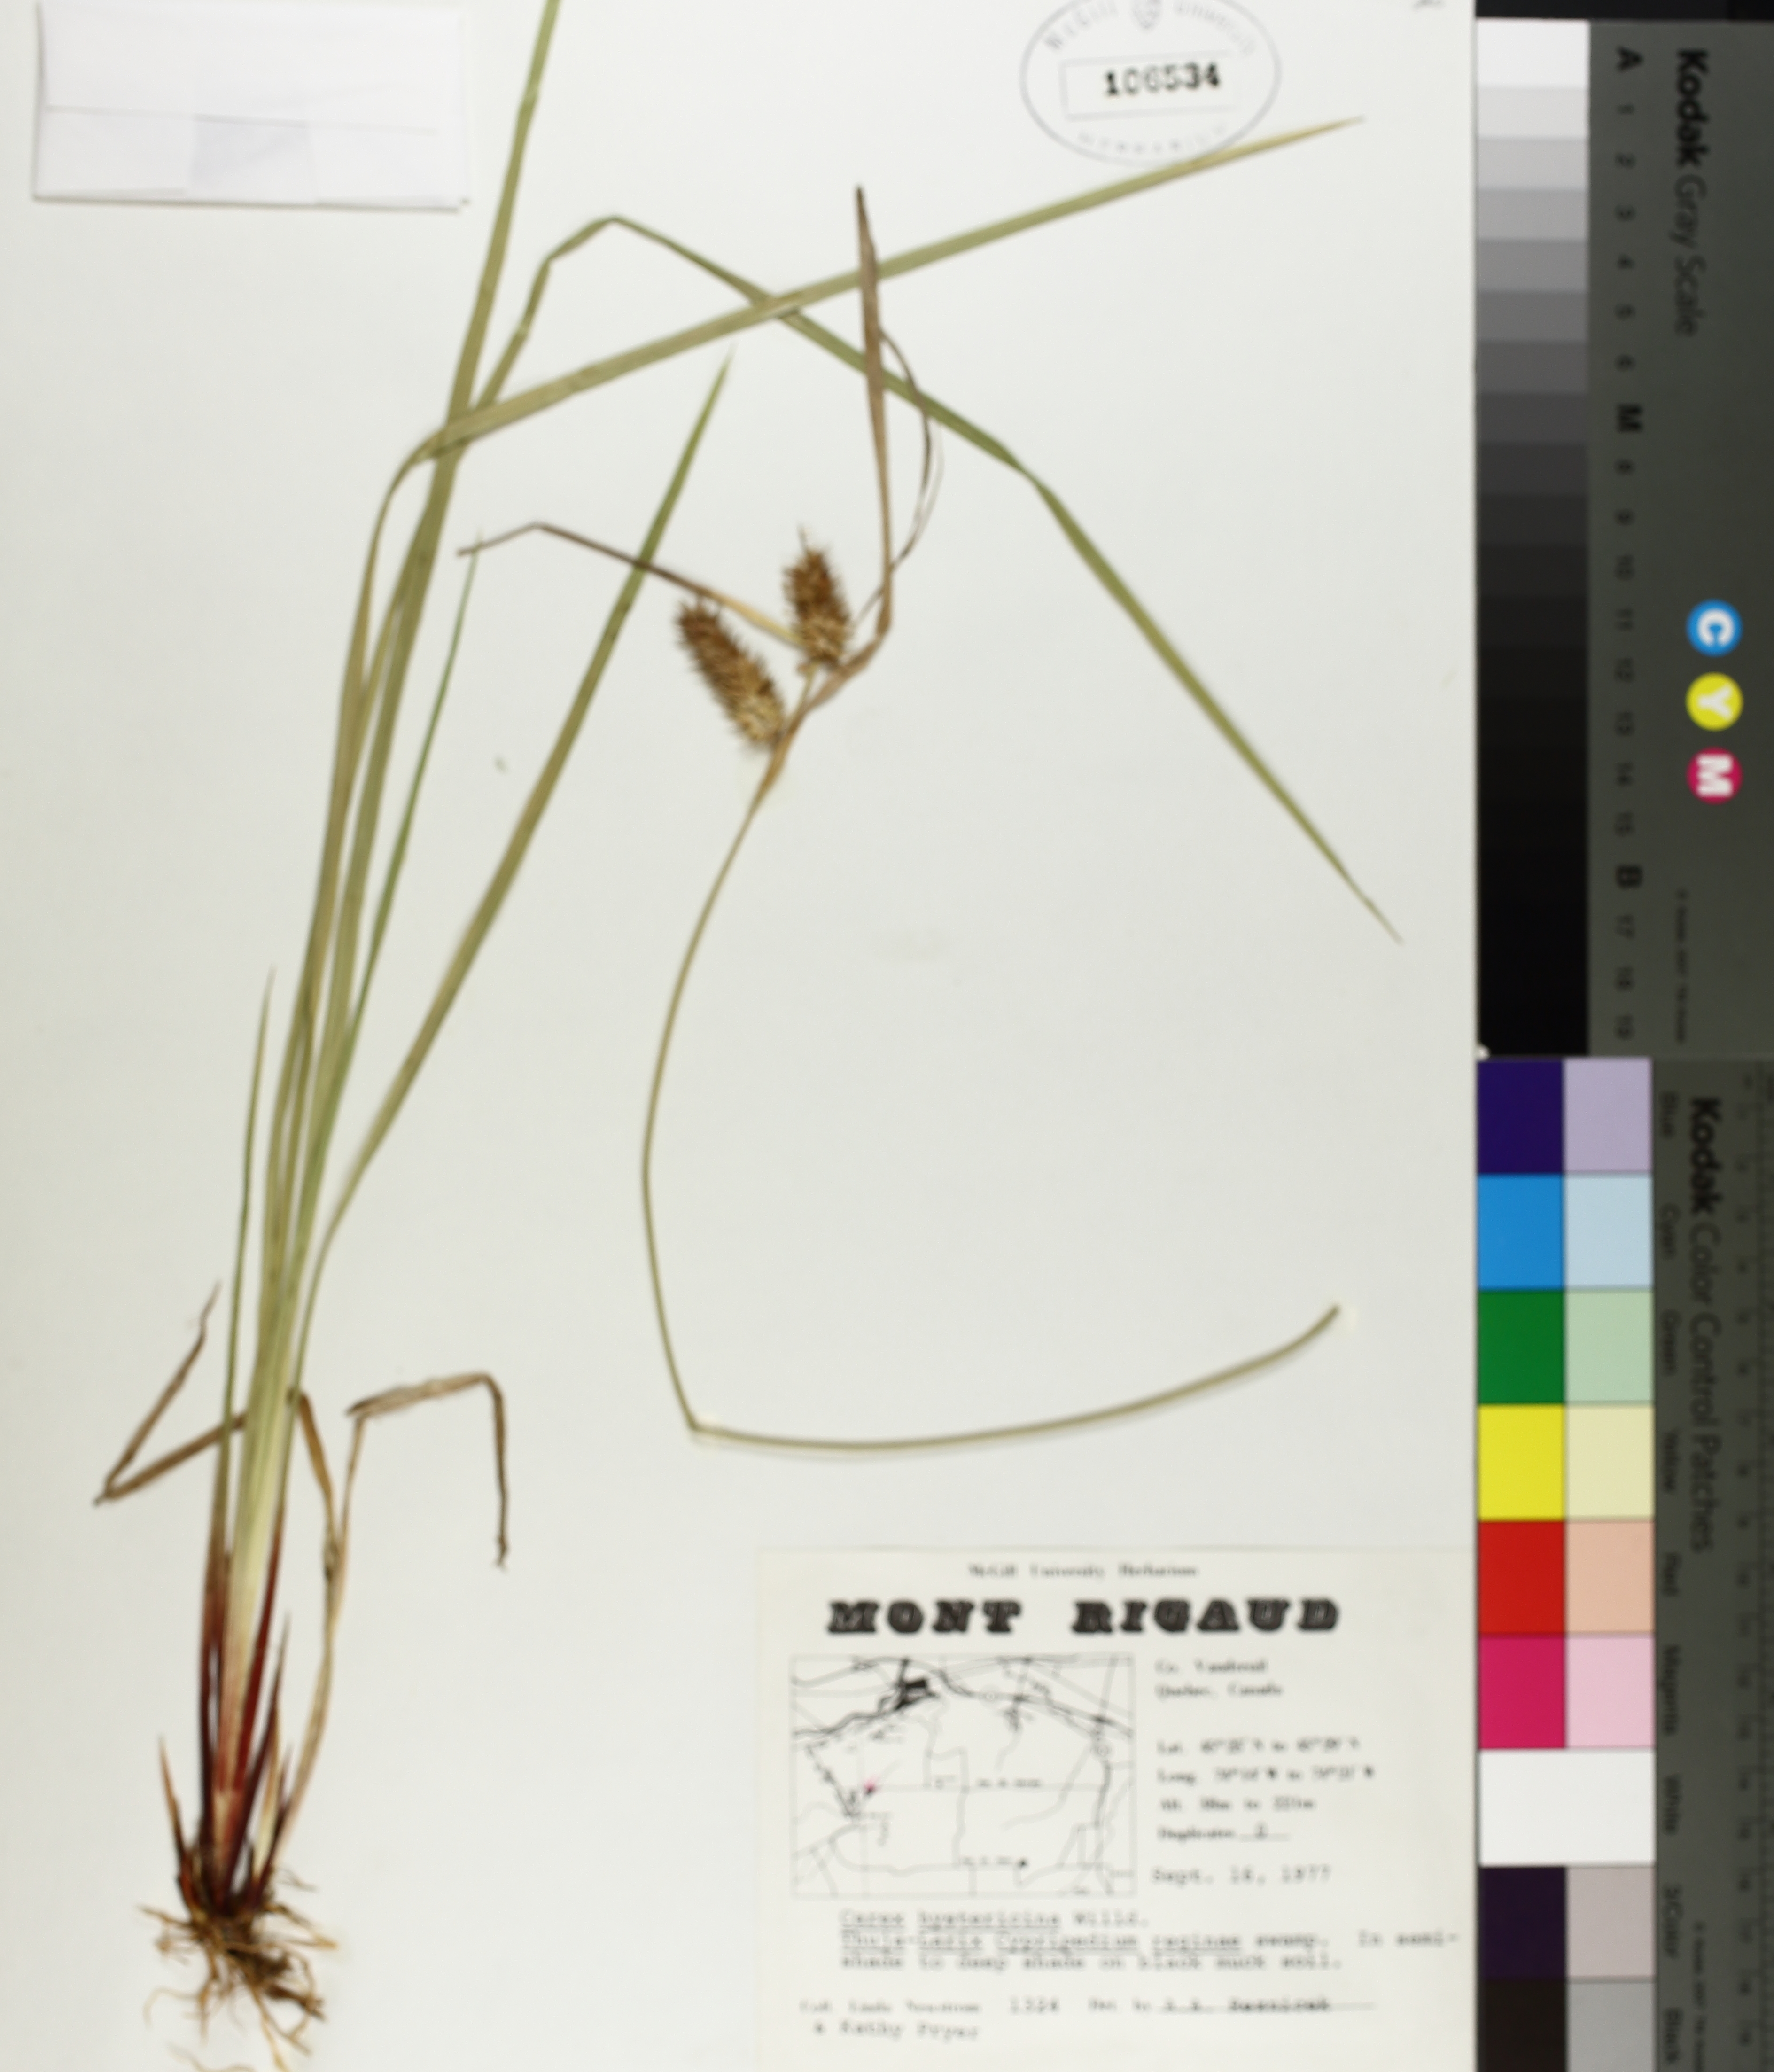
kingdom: Plantae
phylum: Tracheophyta
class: Liliopsida
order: Poales
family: Cyperaceae
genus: Carex
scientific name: Carex hystericina
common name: Bottlebrush sedge
